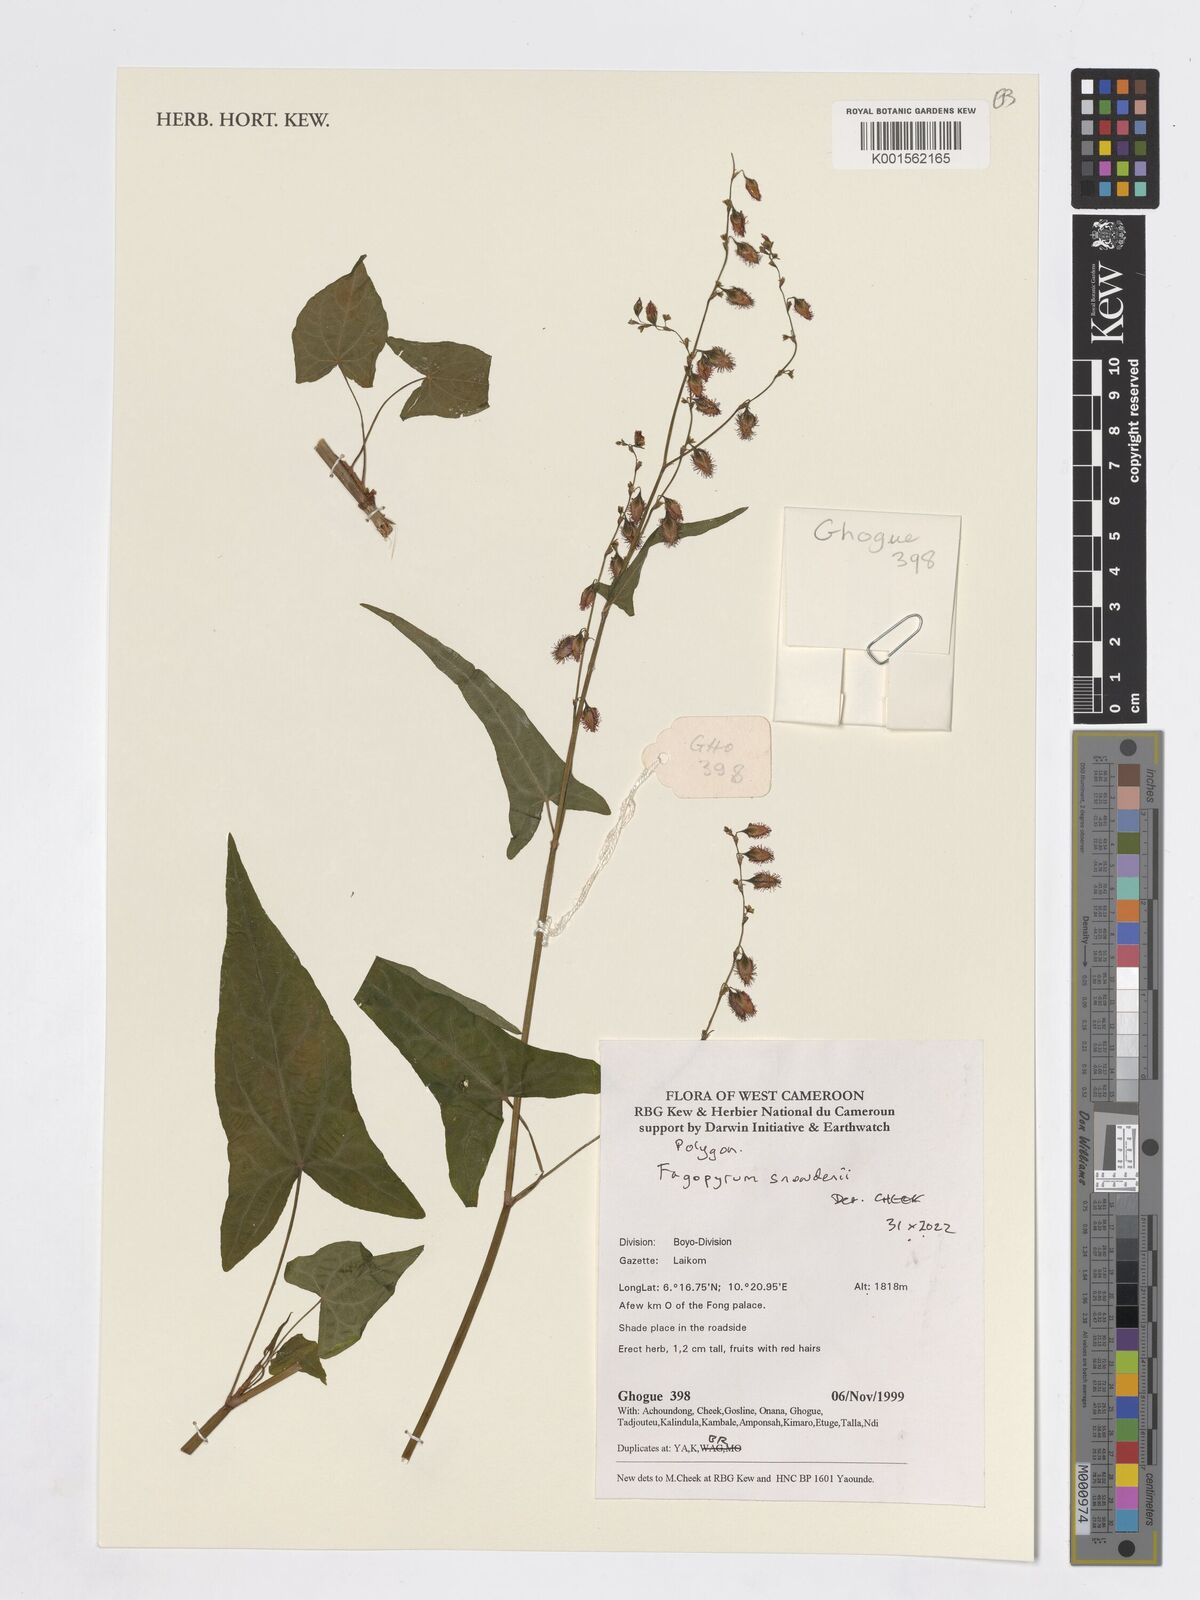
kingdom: Plantae
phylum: Tracheophyta
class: Magnoliopsida
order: Caryophyllales
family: Polygonaceae
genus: Harpagocarpus
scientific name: Harpagocarpus snowdenii
